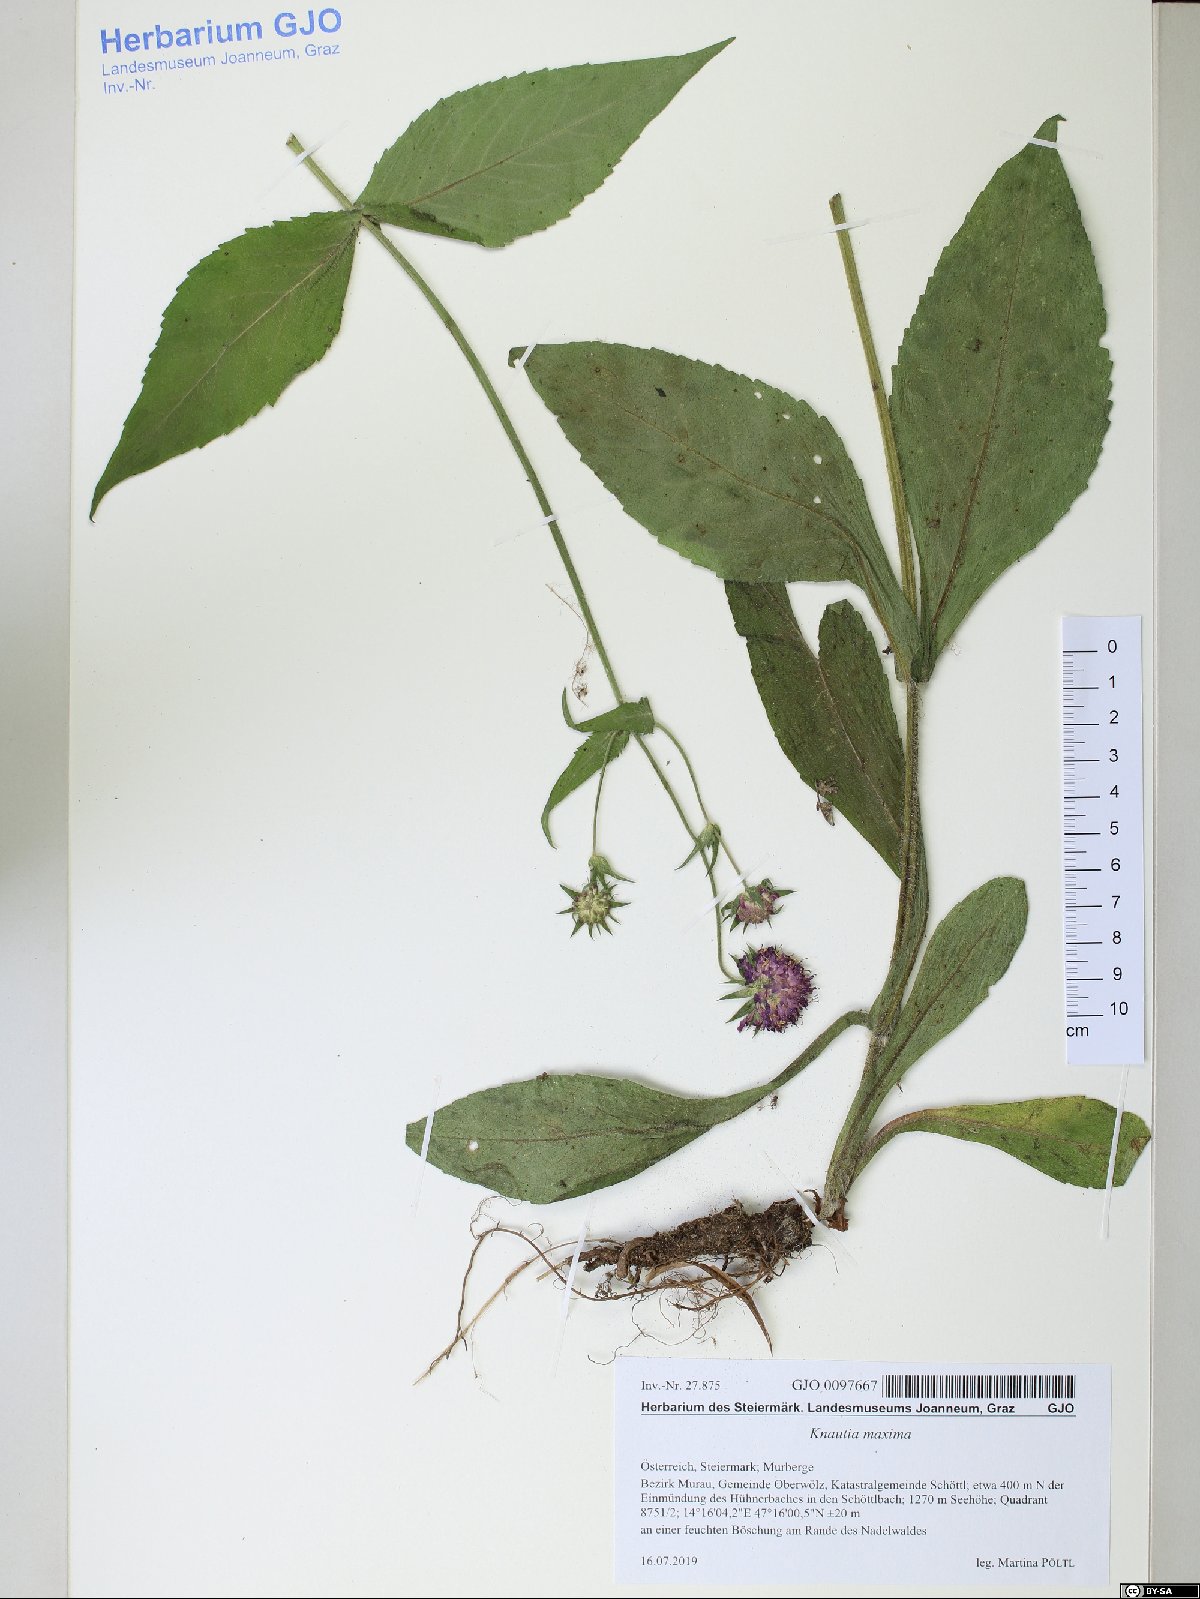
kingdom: Plantae
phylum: Tracheophyta
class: Magnoliopsida
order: Dipsacales
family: Caprifoliaceae
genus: Knautia
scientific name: Knautia dipsacifolia
